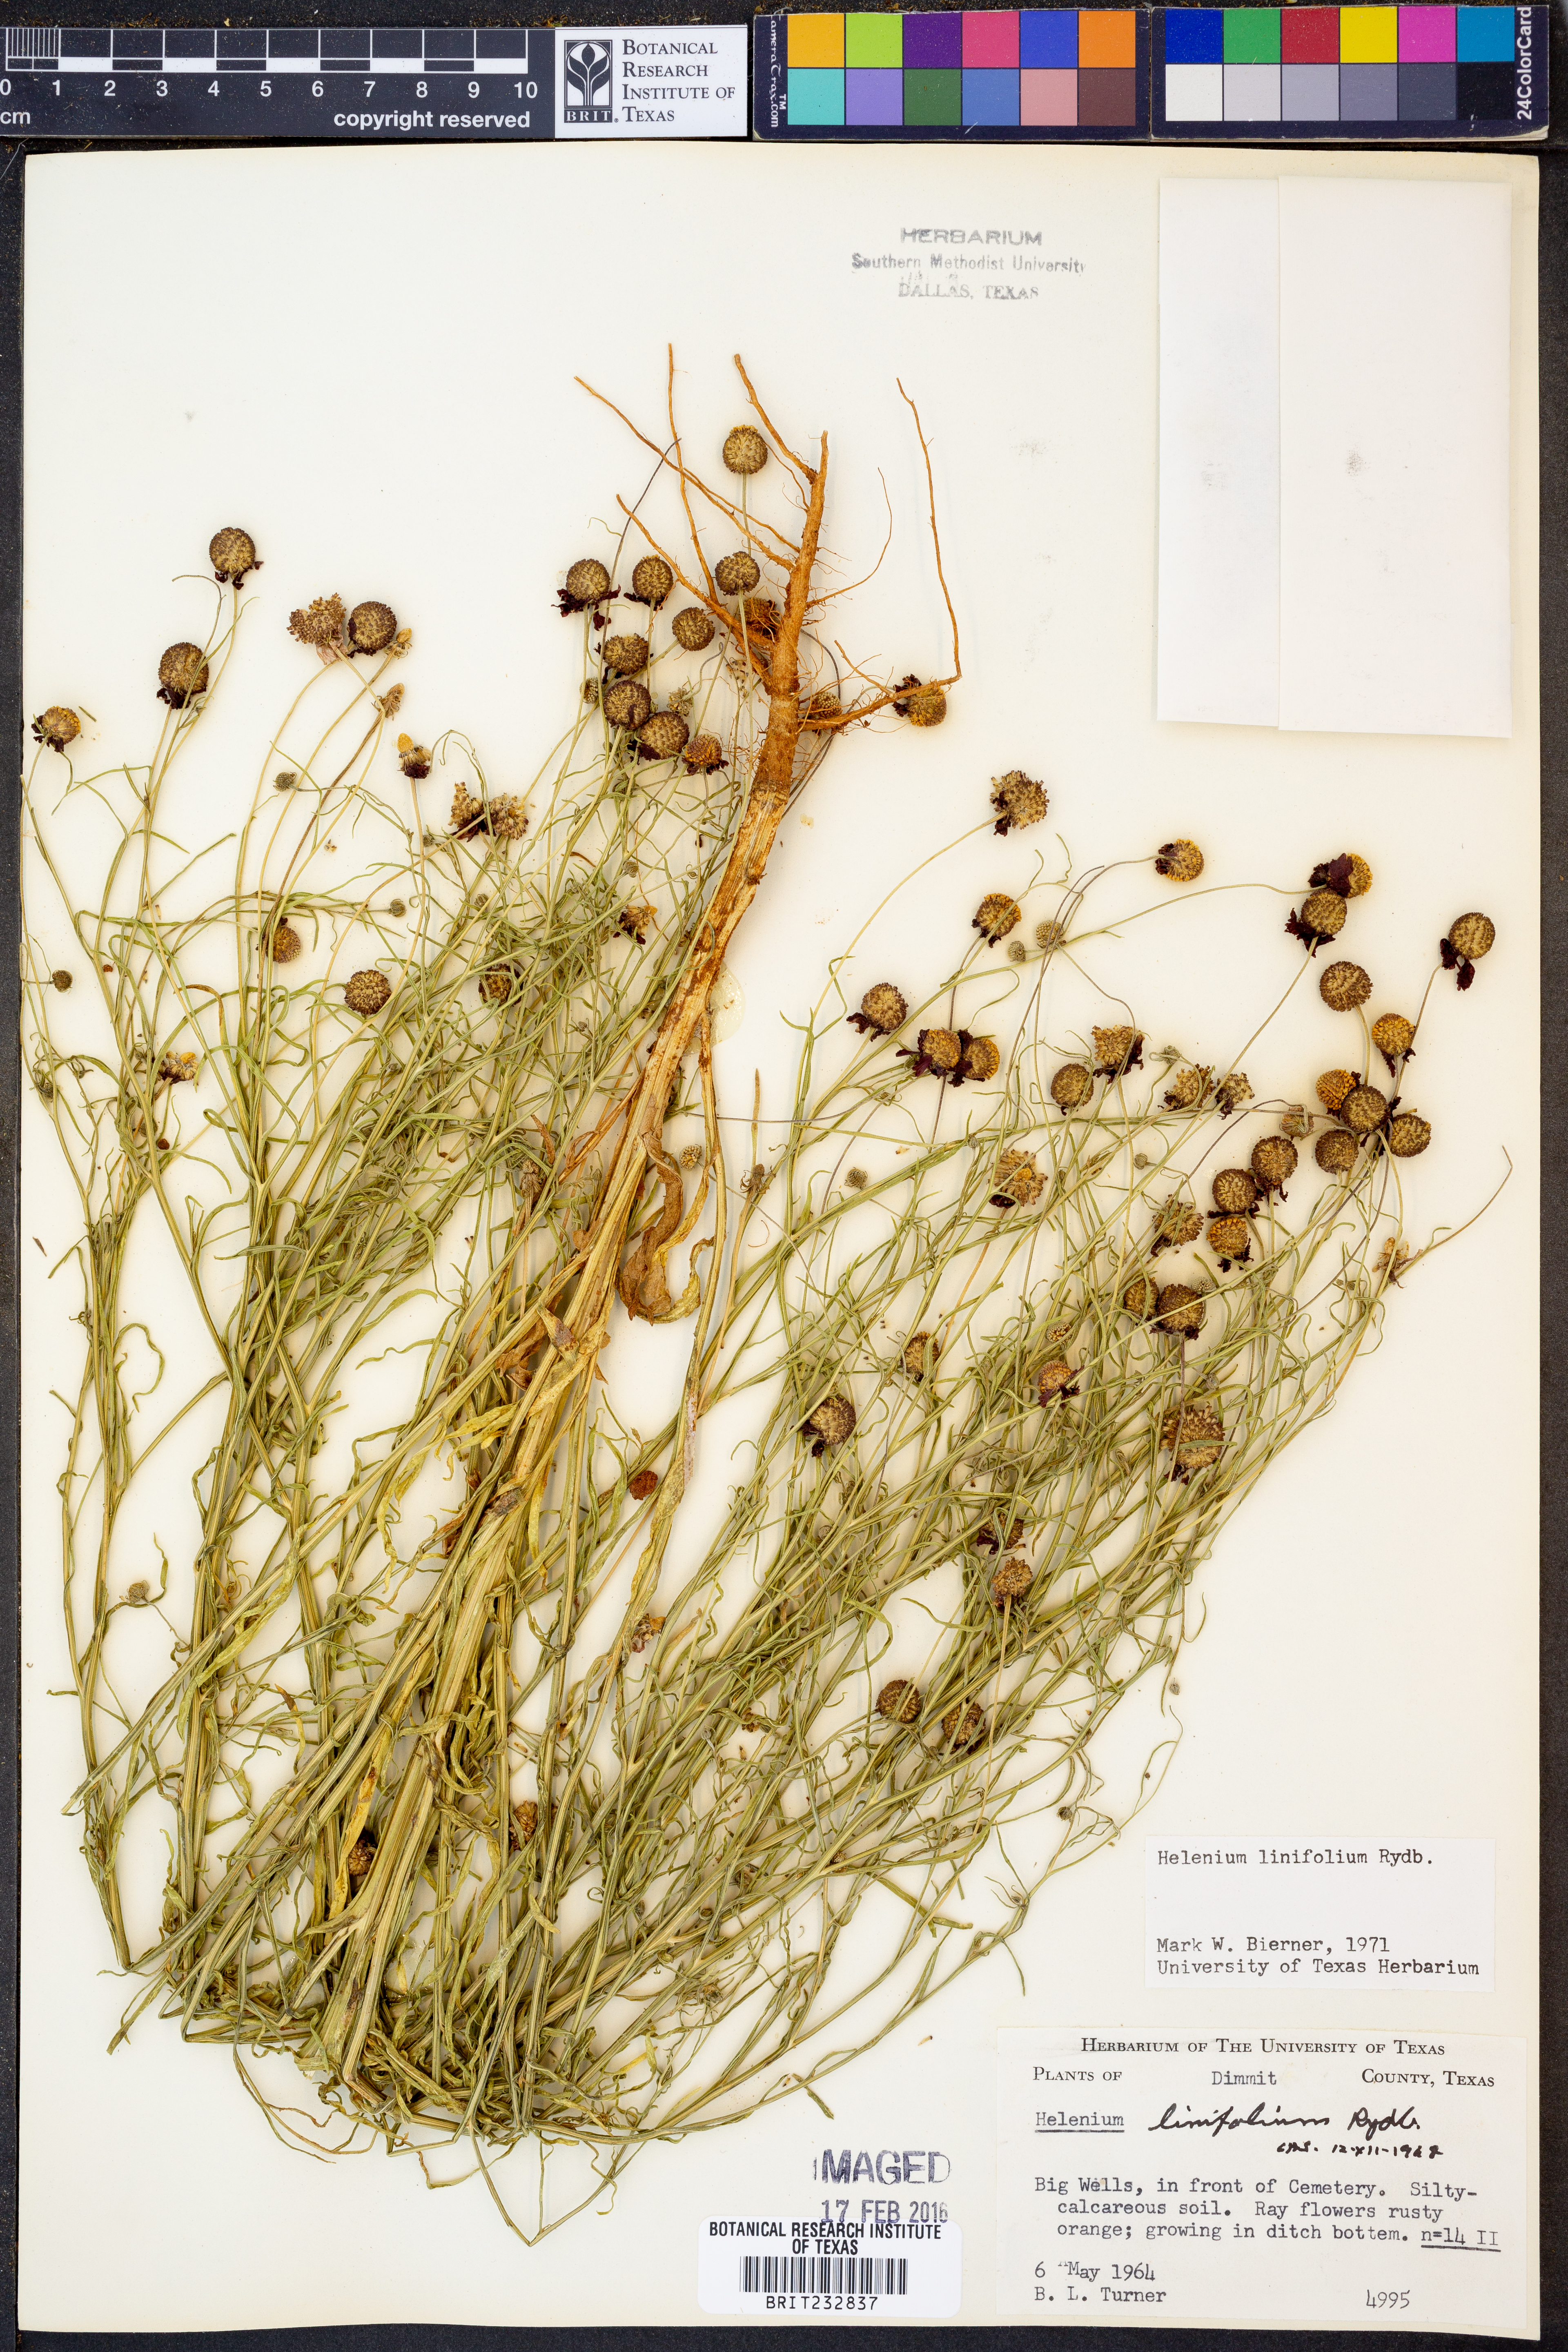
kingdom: Plantae
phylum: Tracheophyta
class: Magnoliopsida
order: Asterales
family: Asteraceae
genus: Helenium
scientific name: Helenium linifolium
